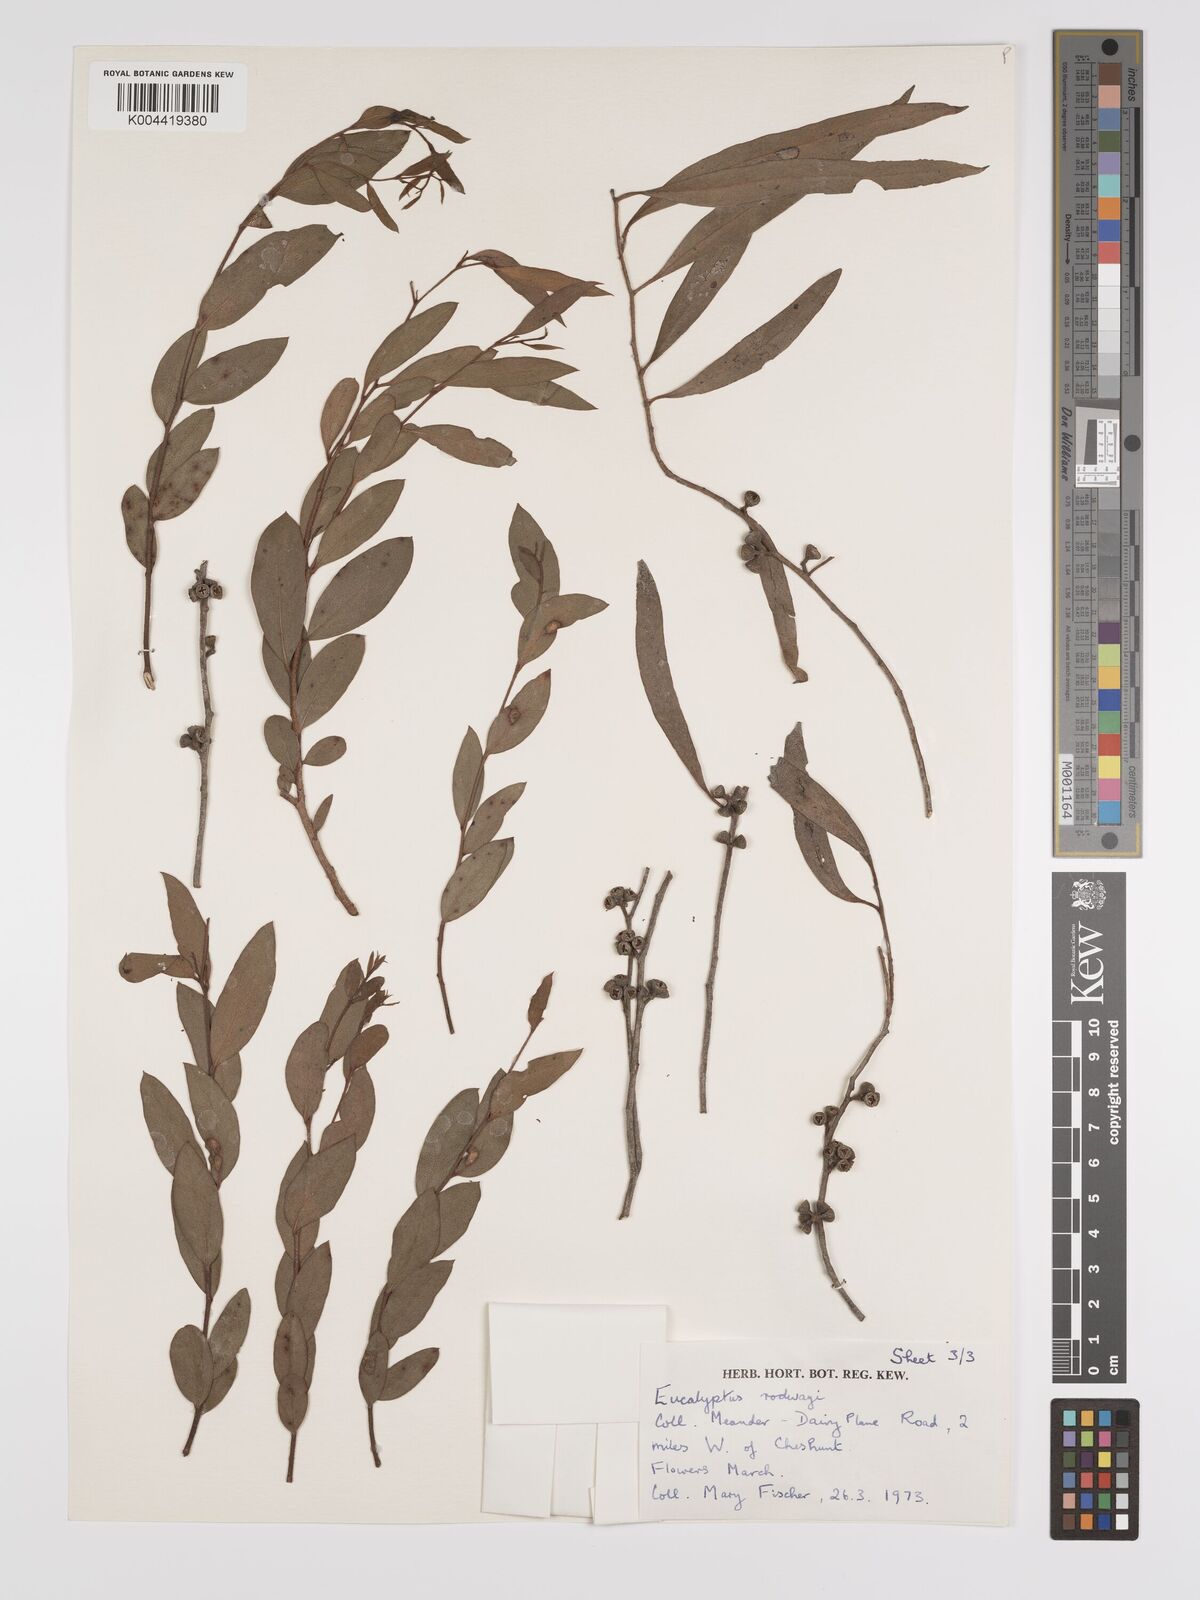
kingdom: Plantae
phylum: Tracheophyta
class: Magnoliopsida
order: Myrtales
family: Myrtaceae
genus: Eucalyptus
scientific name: Eucalyptus rodwayi
